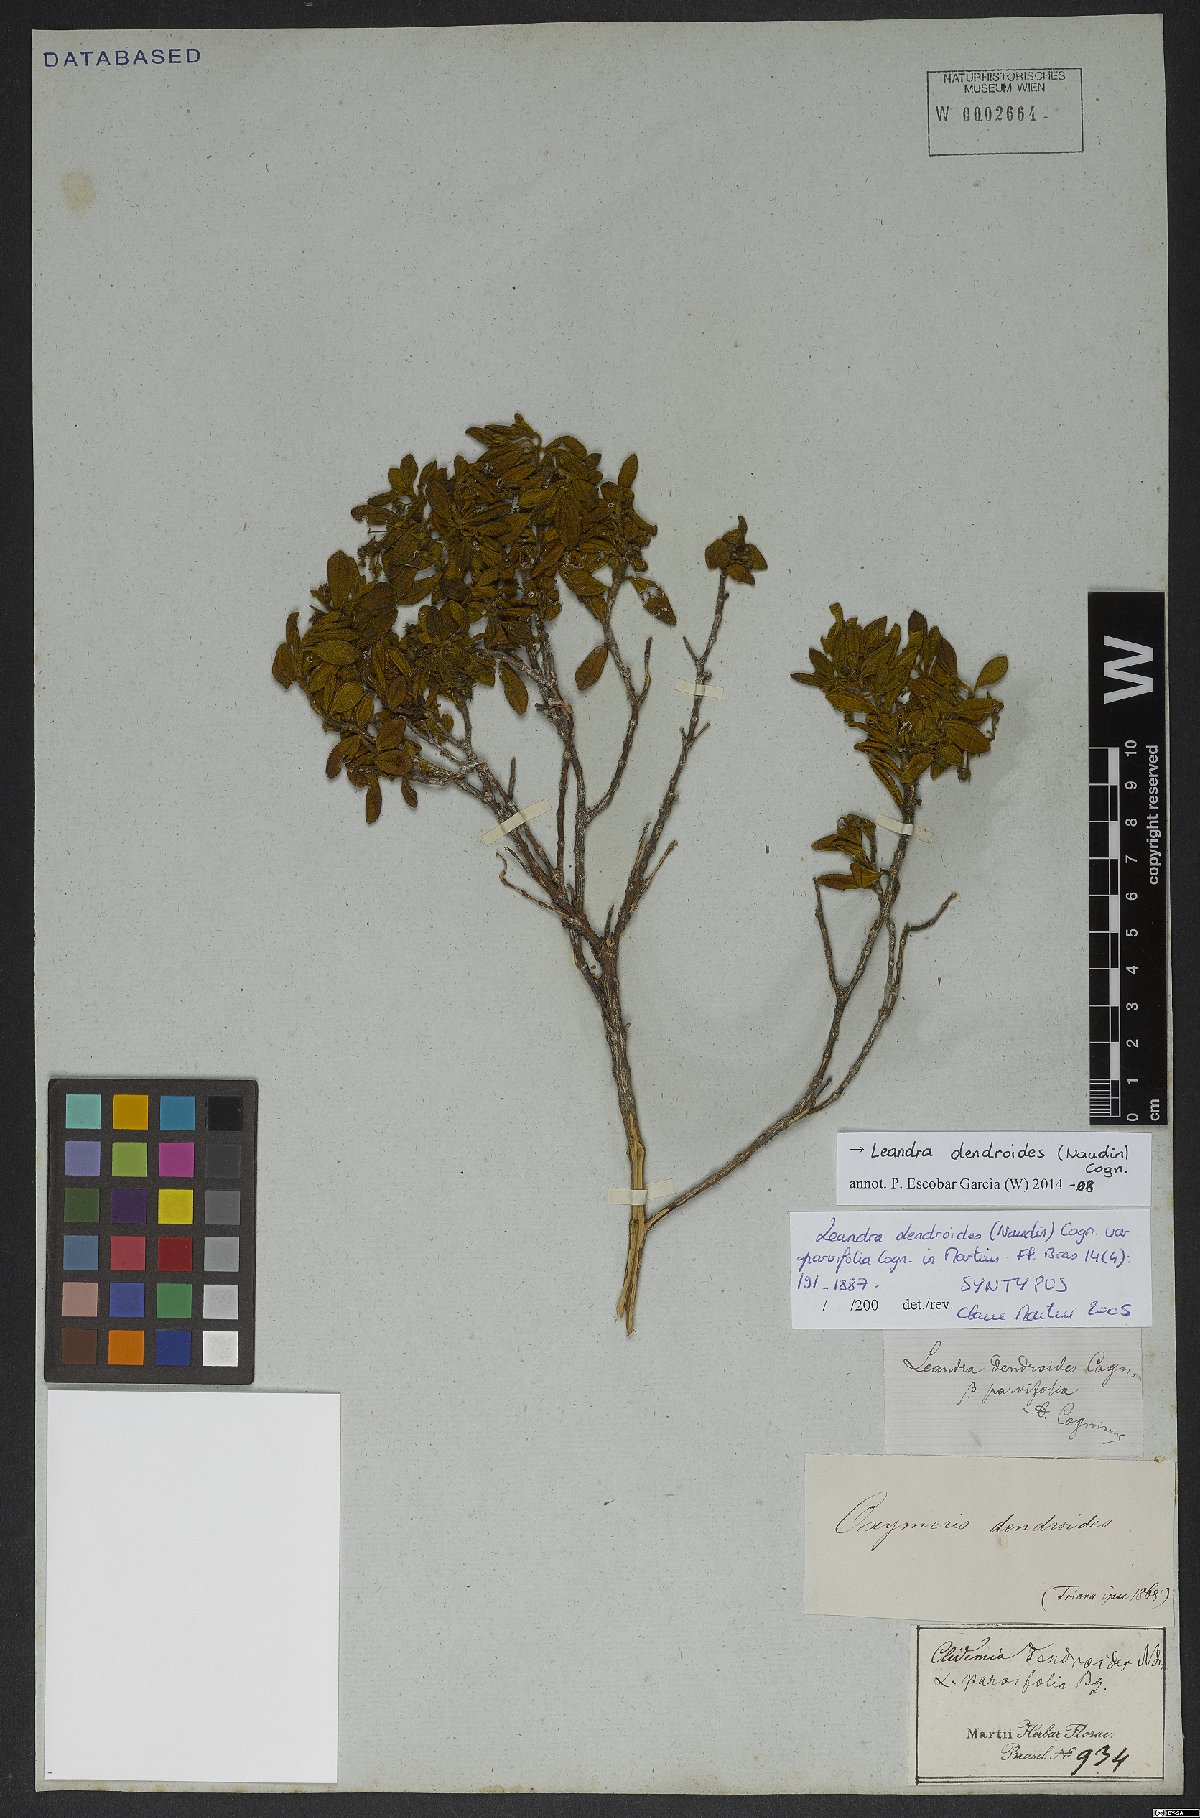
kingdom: Plantae
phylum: Tracheophyta
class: Magnoliopsida
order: Myrtales
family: Melastomataceae
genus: Miconia
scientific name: Miconia dendroides
